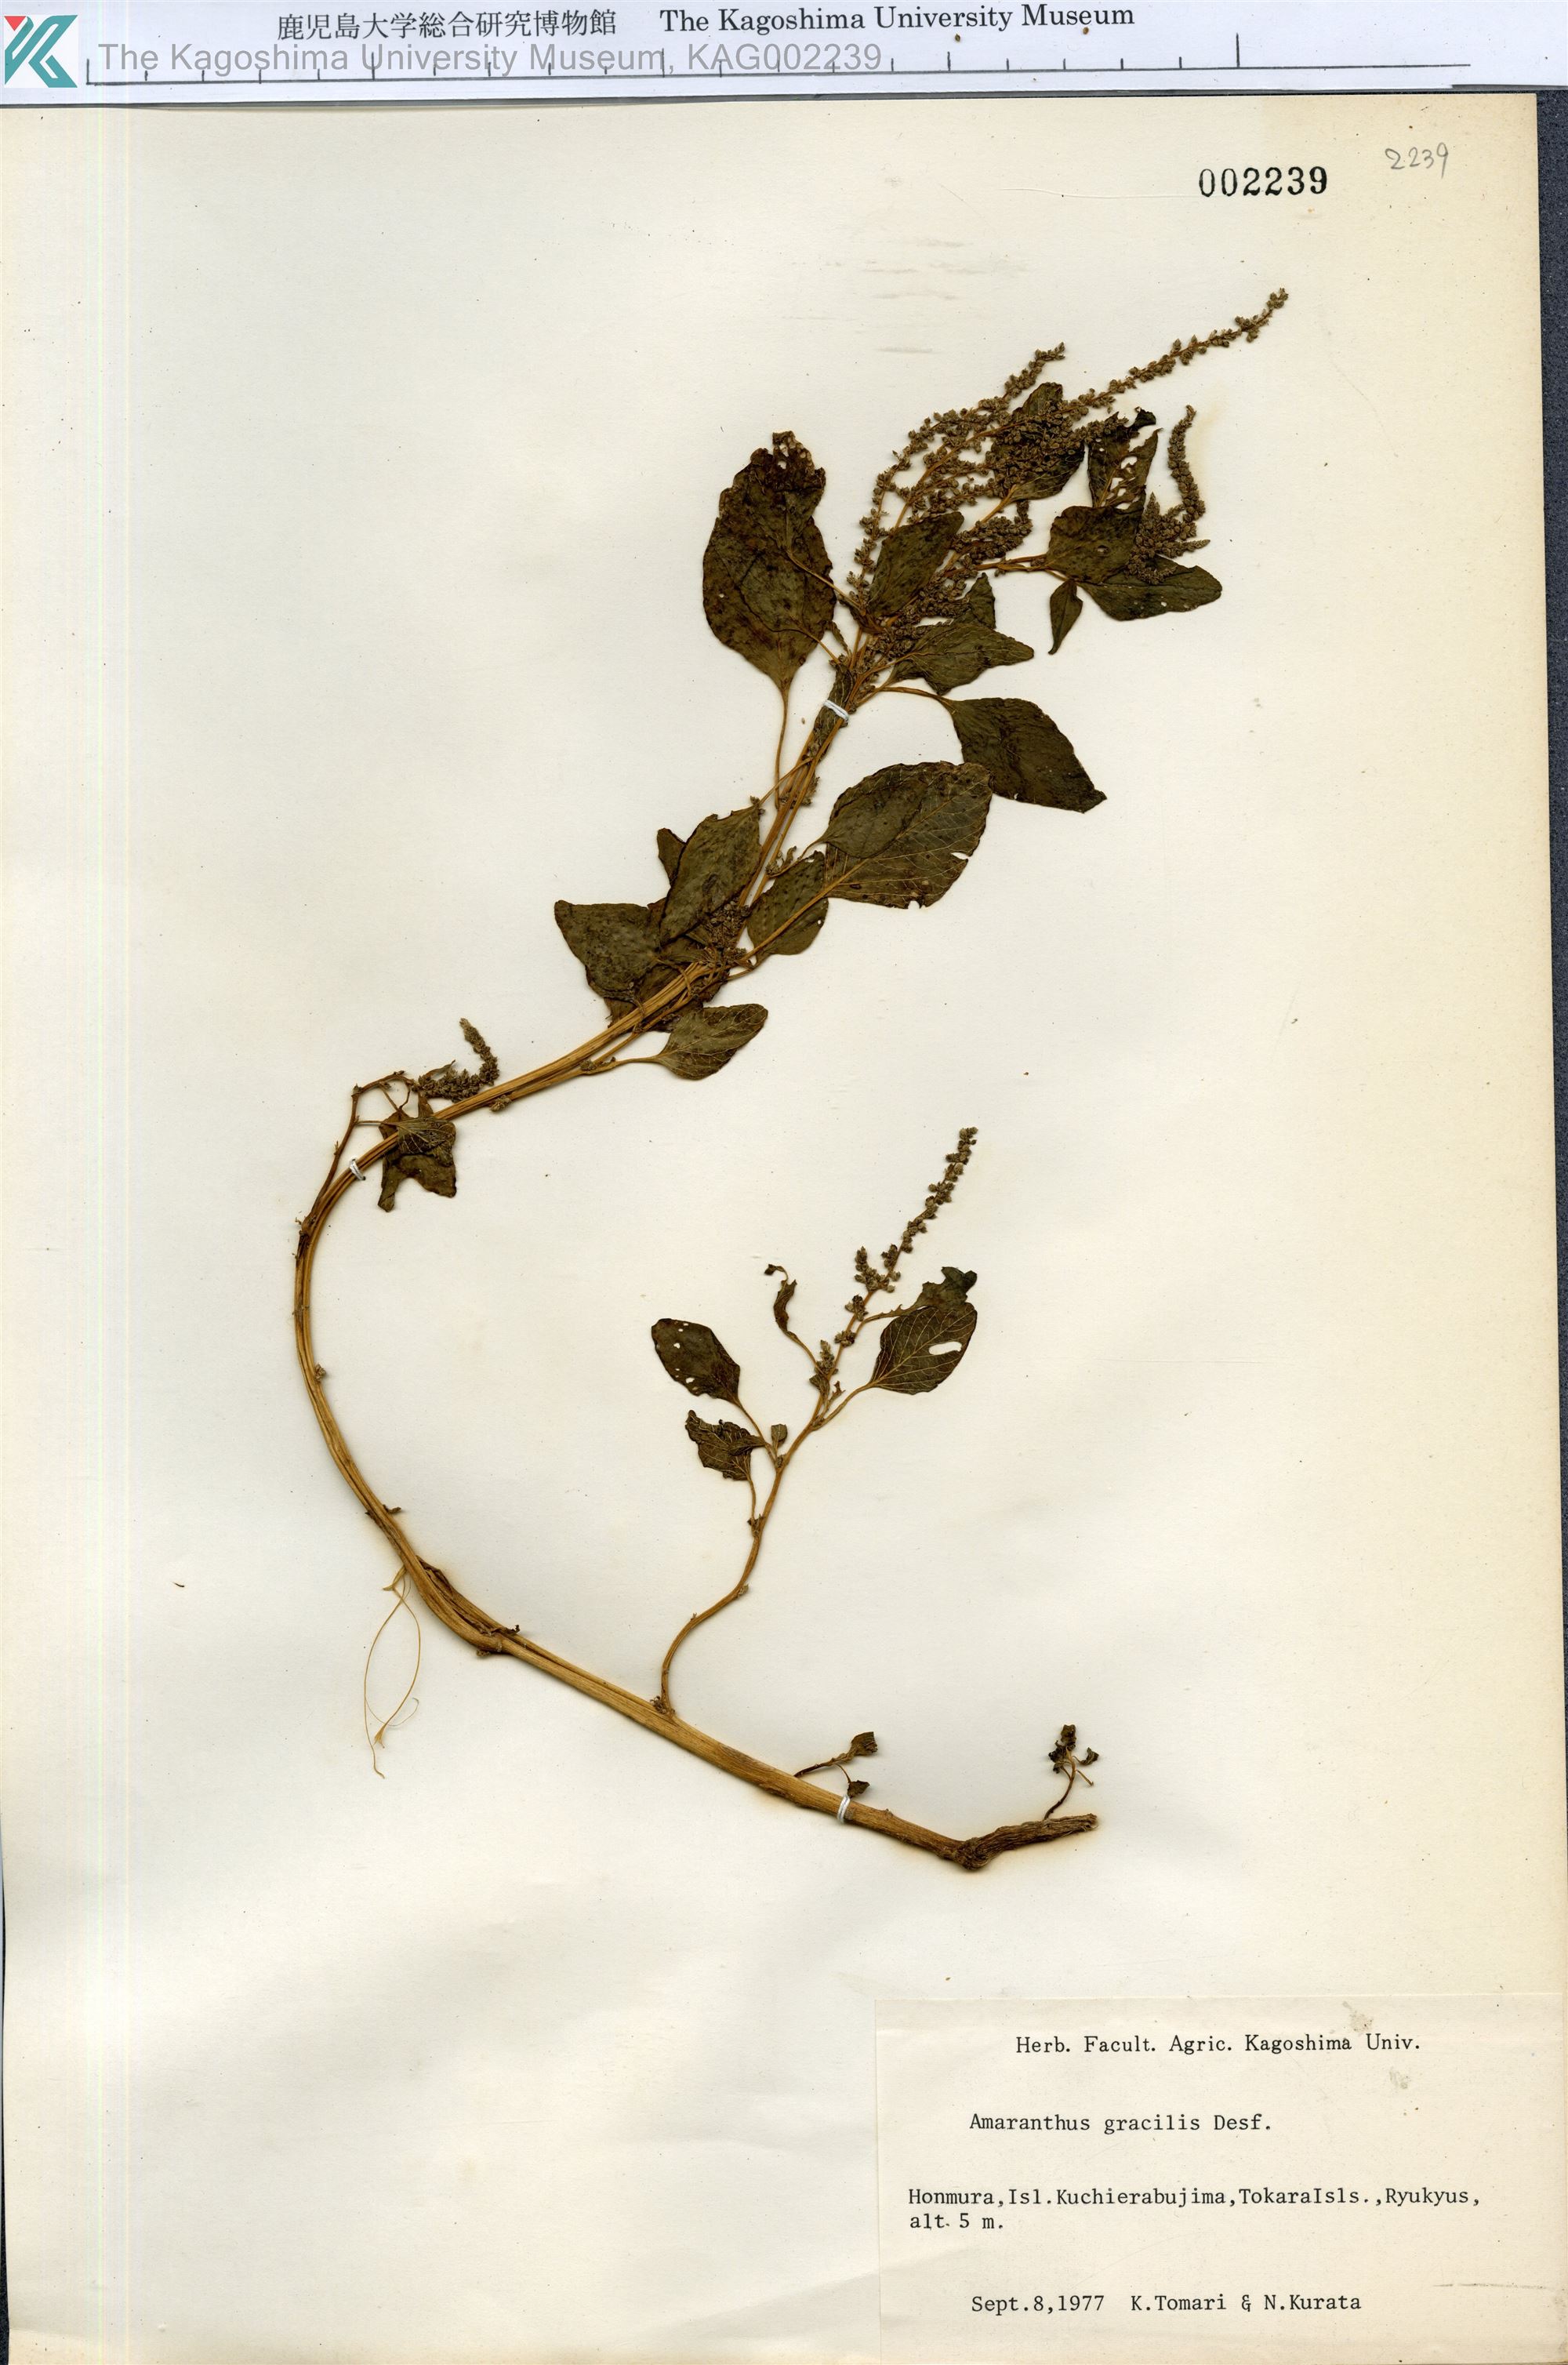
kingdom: Plantae
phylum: Tracheophyta
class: Magnoliopsida
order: Caryophyllales
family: Amaranthaceae
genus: Amaranthus
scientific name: Amaranthus viridis
